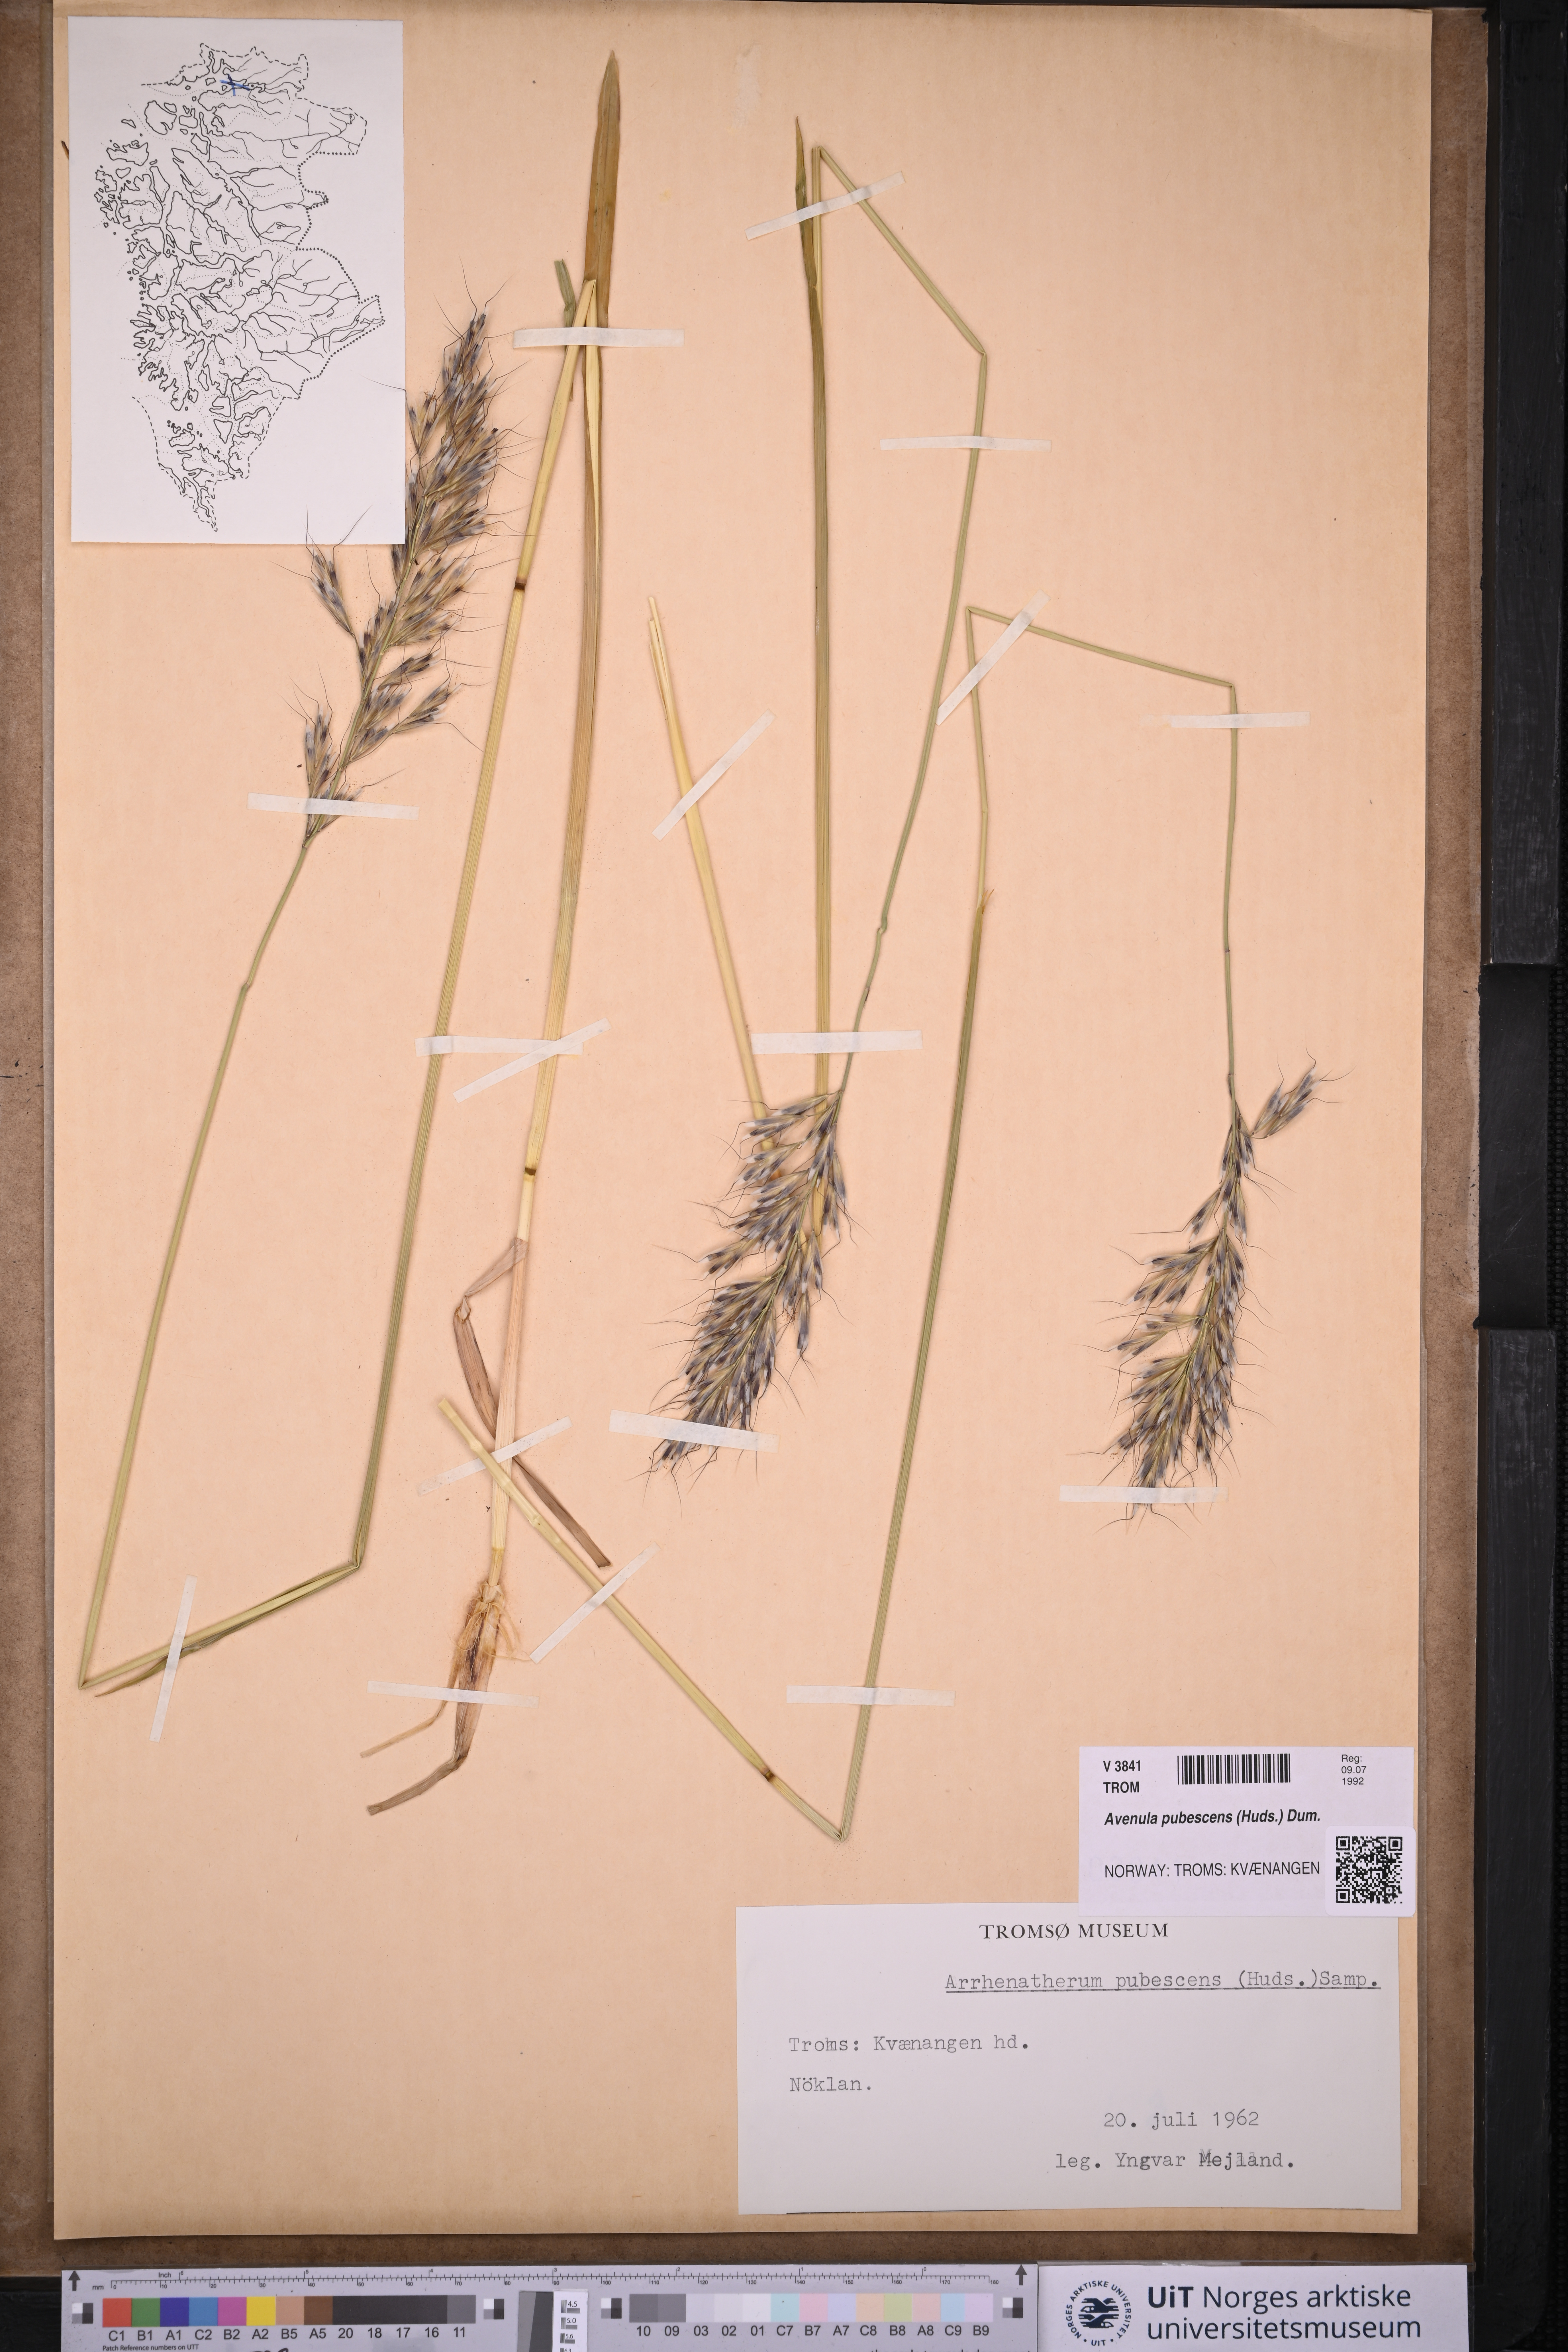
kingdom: Plantae
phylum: Tracheophyta
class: Liliopsida
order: Poales
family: Poaceae
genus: Avenula
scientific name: Avenula pubescens
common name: Downy alpine oatgrass
